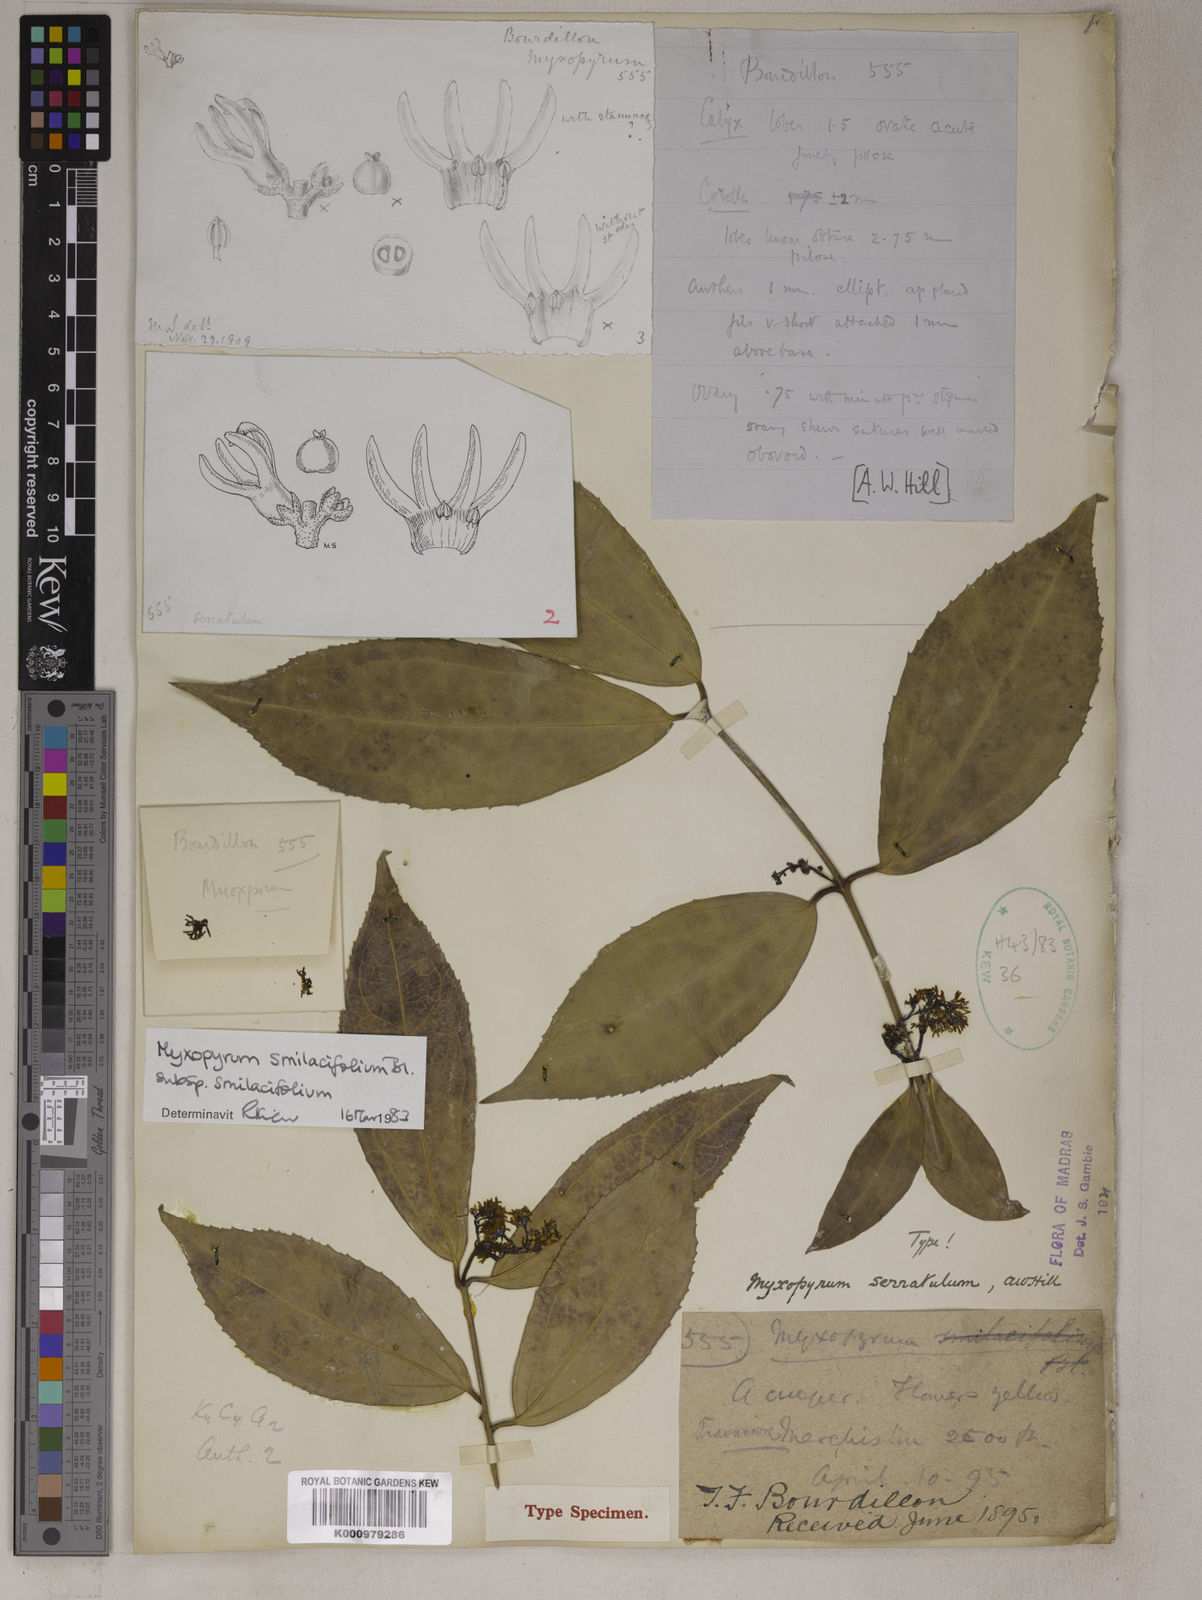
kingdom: Plantae
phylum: Tracheophyta
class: Magnoliopsida
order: Lamiales
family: Oleaceae
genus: Myxopyrum
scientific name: Myxopyrum smilacifolium
